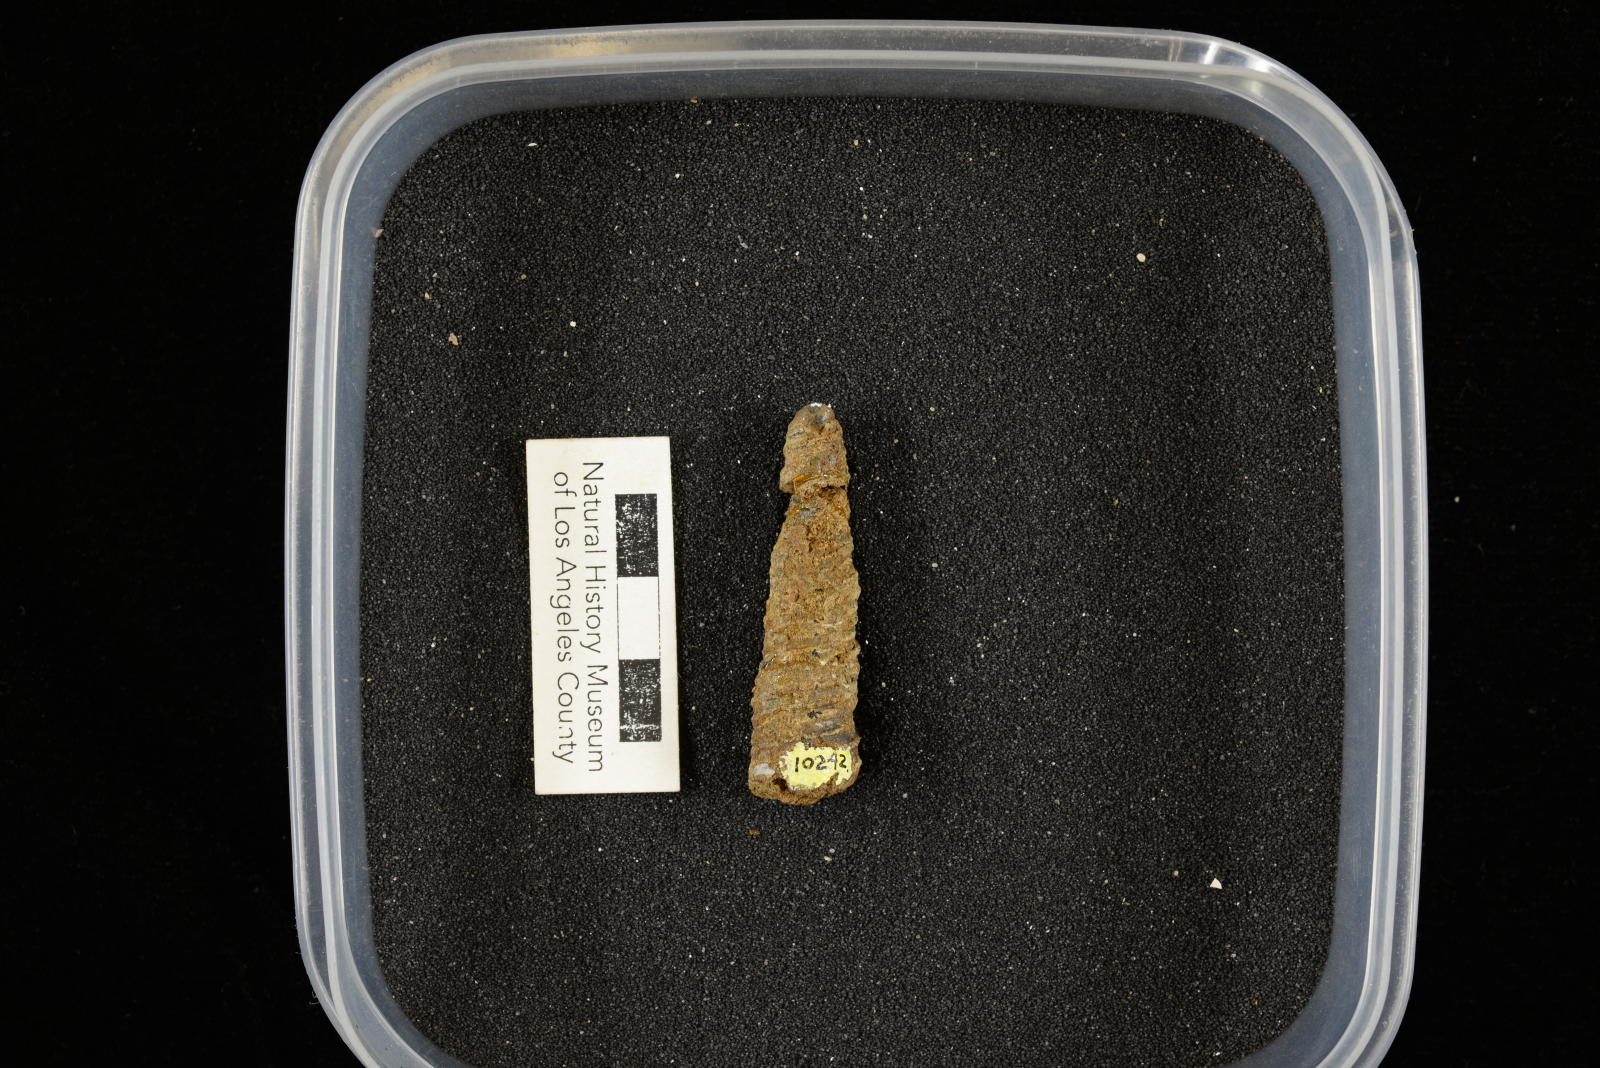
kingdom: Animalia
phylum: Mollusca
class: Gastropoda
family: Turritellidae
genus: Turritella
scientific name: Turritella
